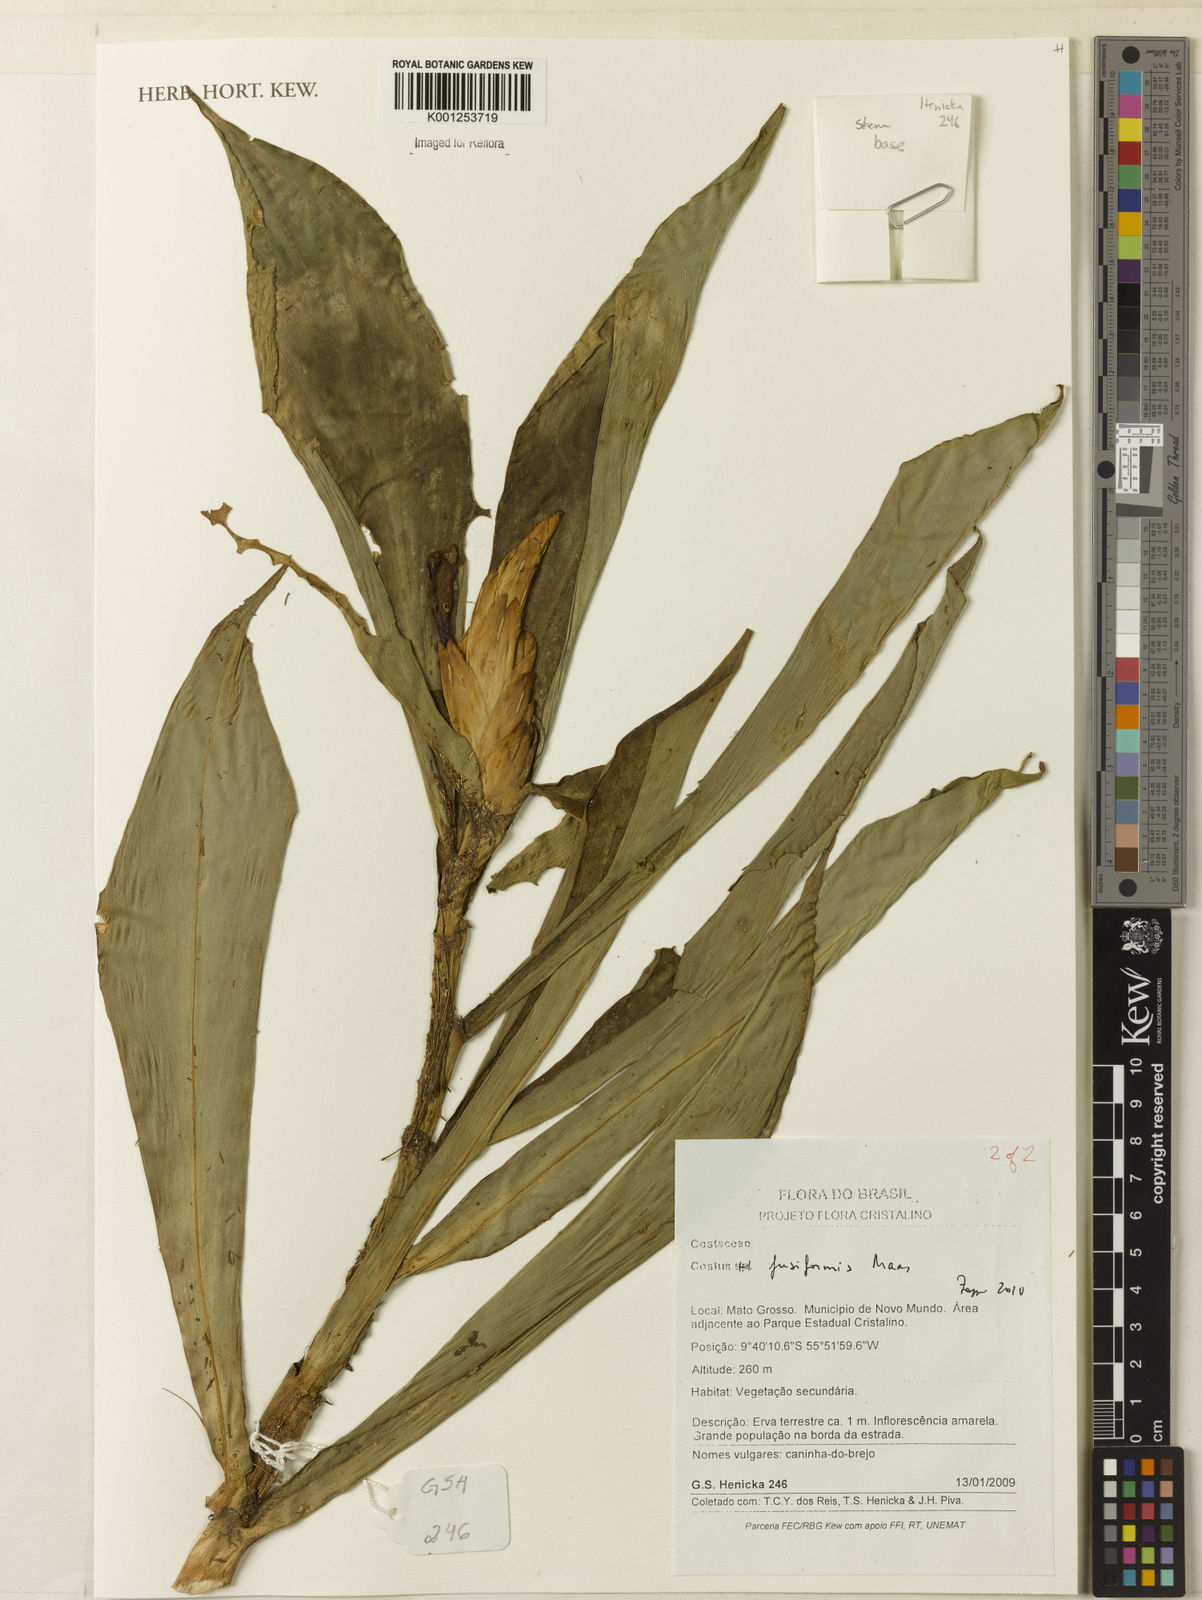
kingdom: Plantae
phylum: Tracheophyta
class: Liliopsida
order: Zingiberales
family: Costaceae
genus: Chamaecostus
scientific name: Chamaecostus fusiformis
